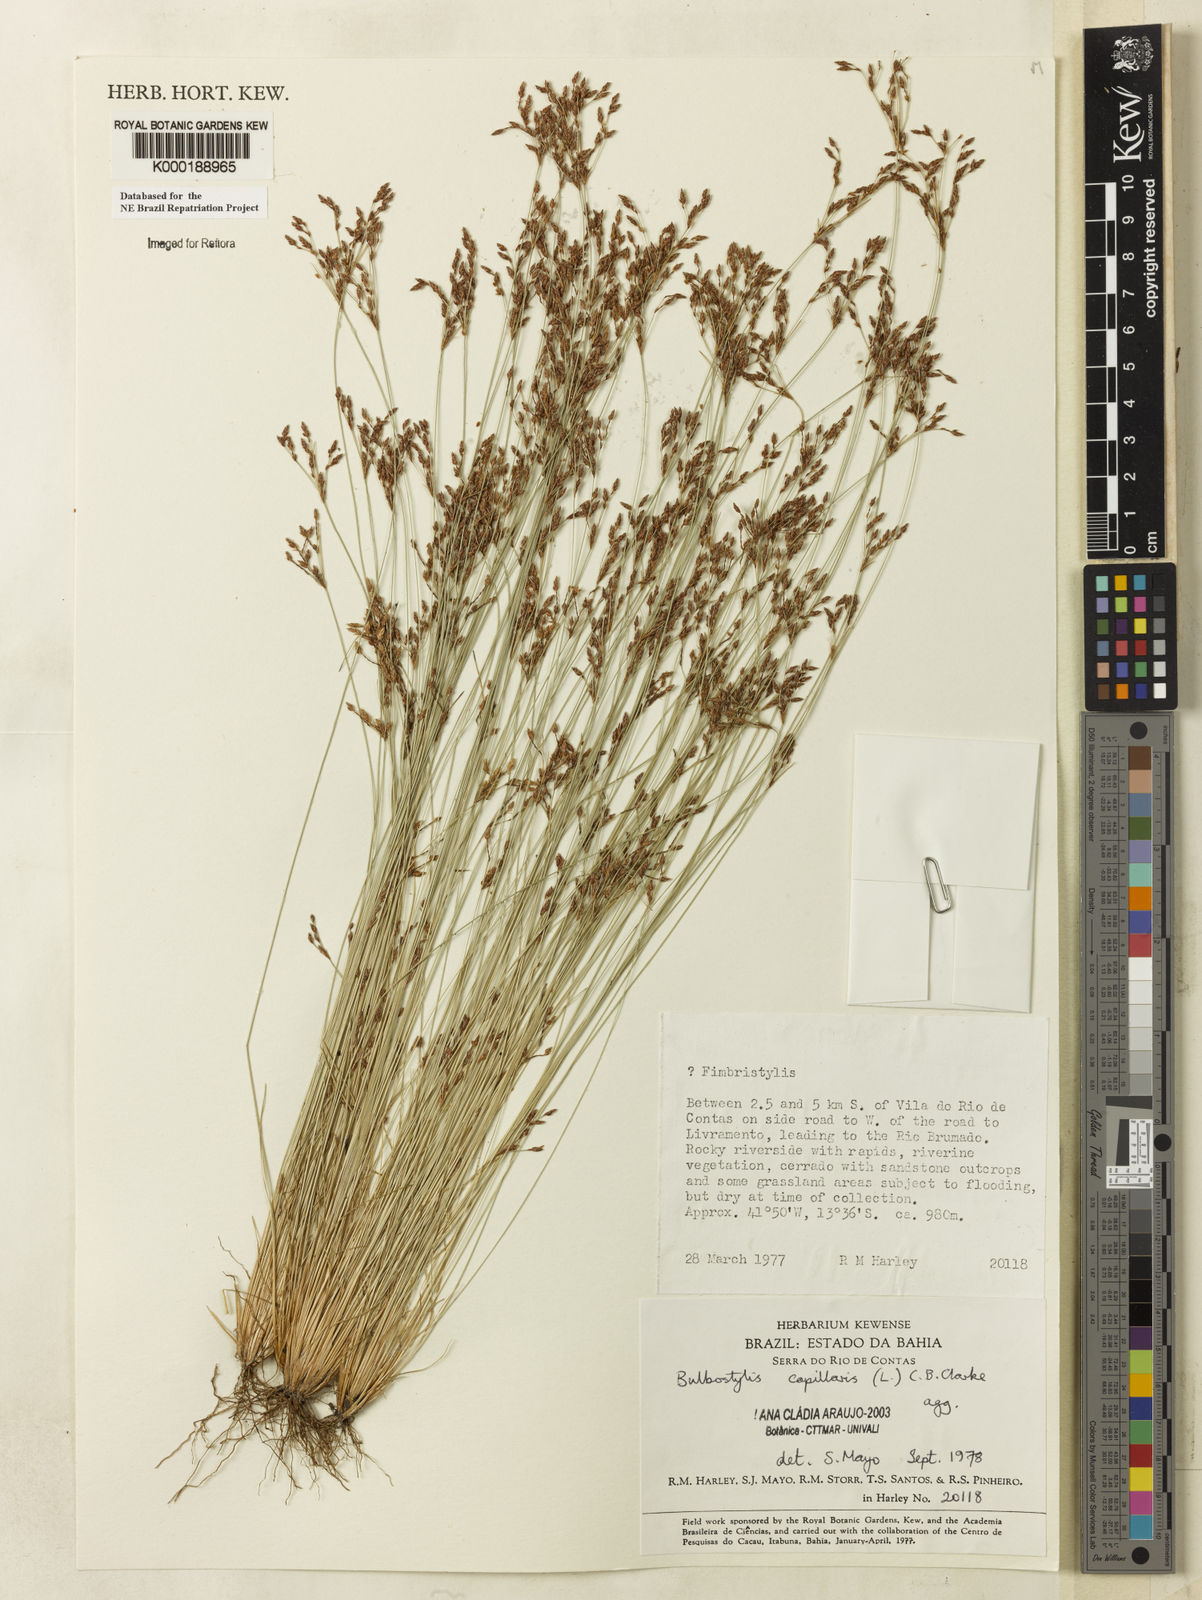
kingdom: Plantae
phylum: Tracheophyta
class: Liliopsida
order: Poales
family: Cyperaceae
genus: Bulbostylis
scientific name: Bulbostylis capillaris
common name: Densetuft hairsedge
